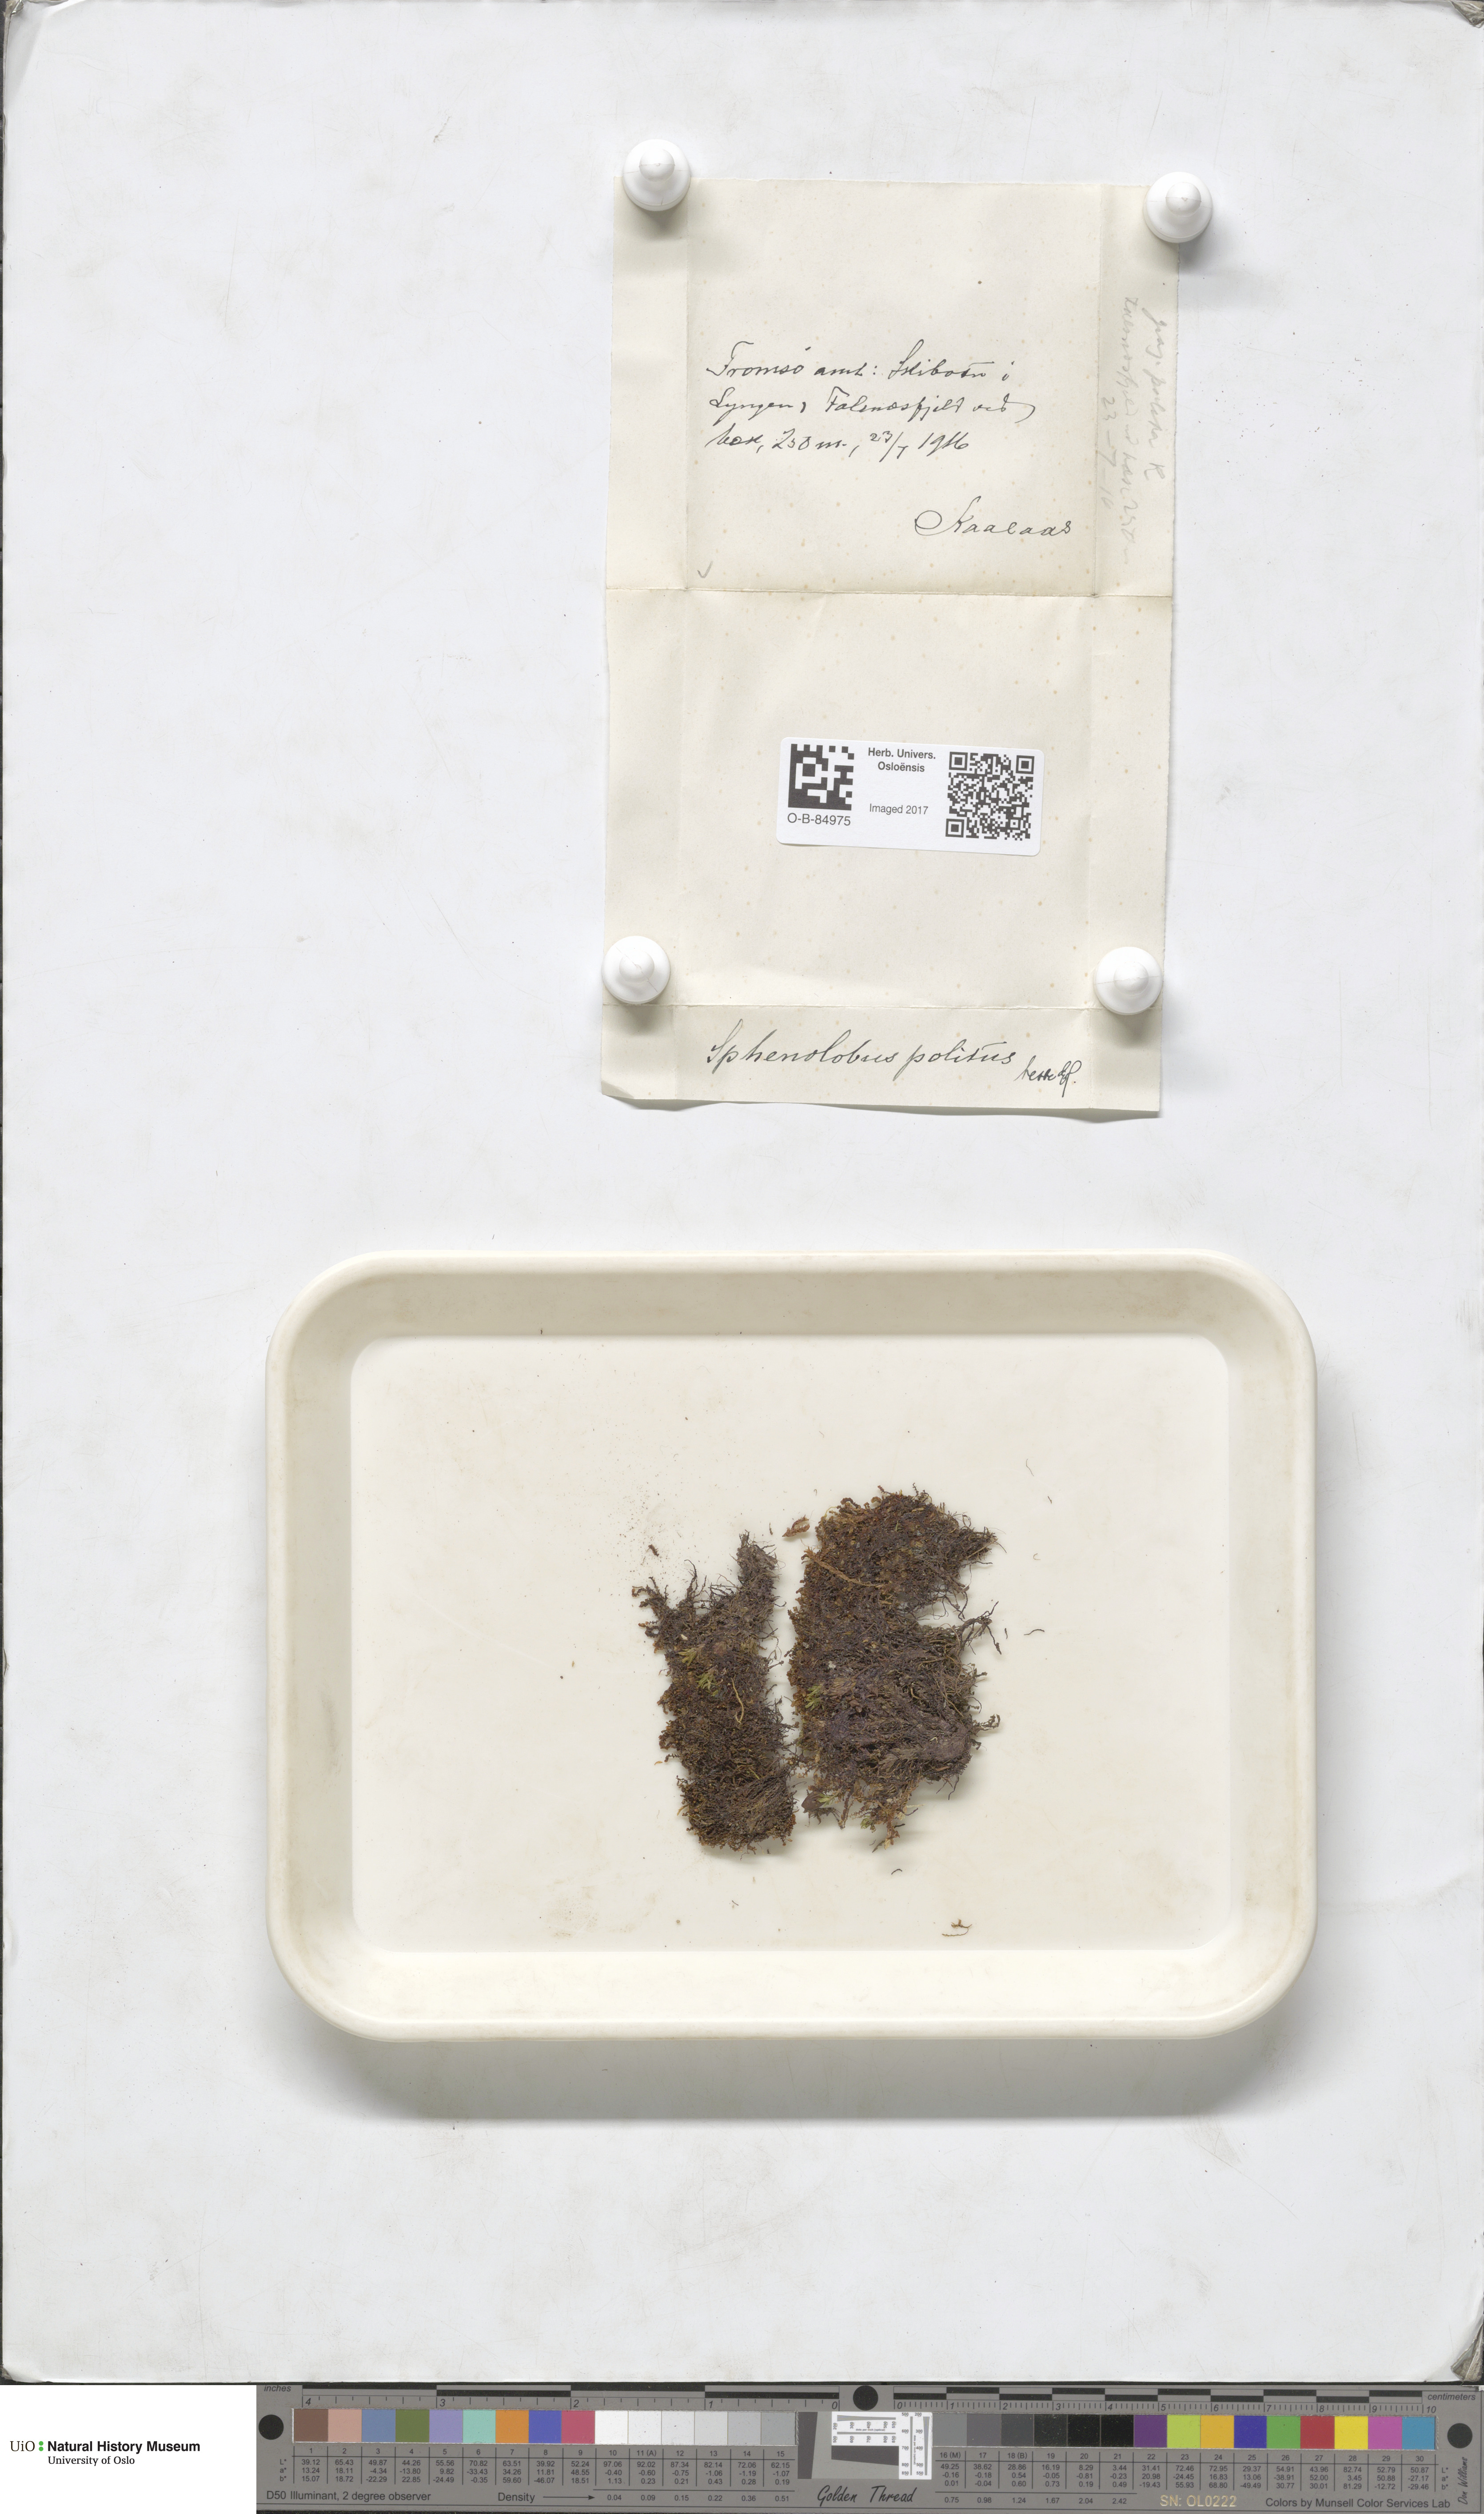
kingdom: Plantae
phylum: Marchantiophyta
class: Jungermanniopsida
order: Jungermanniales
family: Scapaniaceae
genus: Saccobasis
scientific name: Saccobasis polita
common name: Flush notchwort
